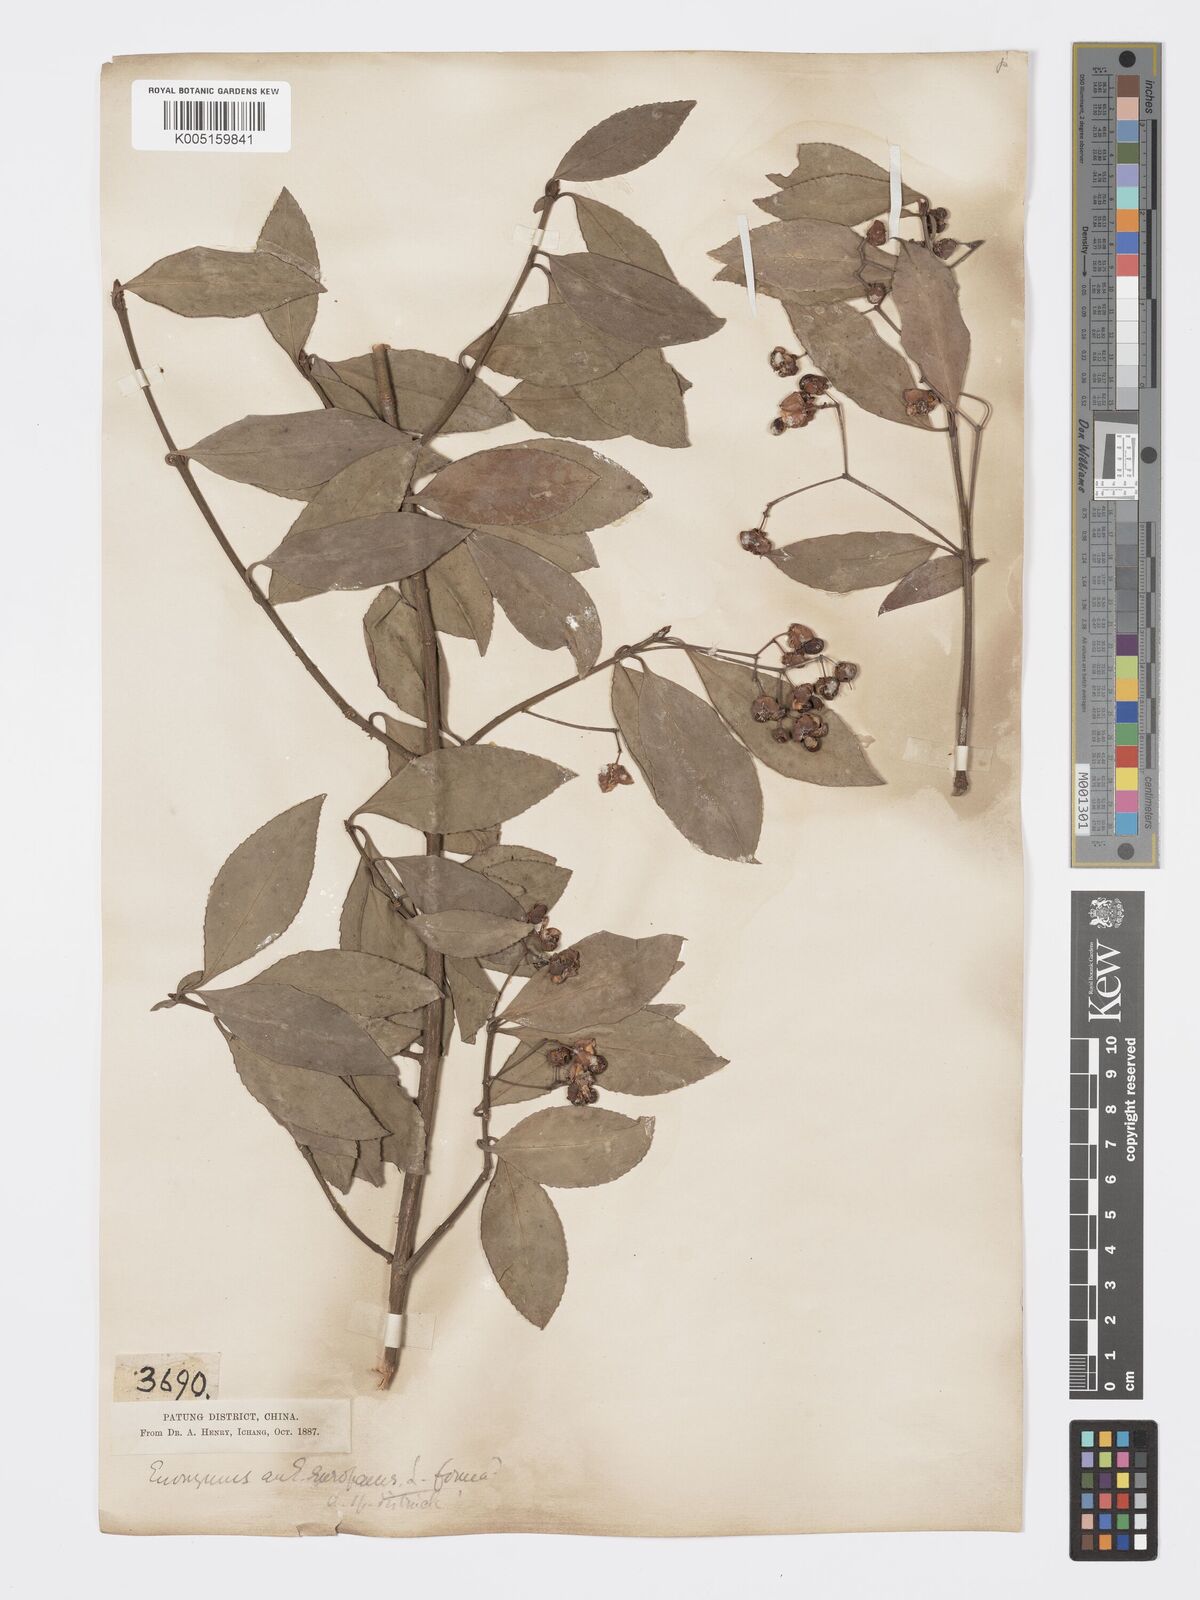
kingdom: Plantae
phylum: Tracheophyta
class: Magnoliopsida
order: Celastrales
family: Celastraceae
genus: Euonymus
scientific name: Euonymus
